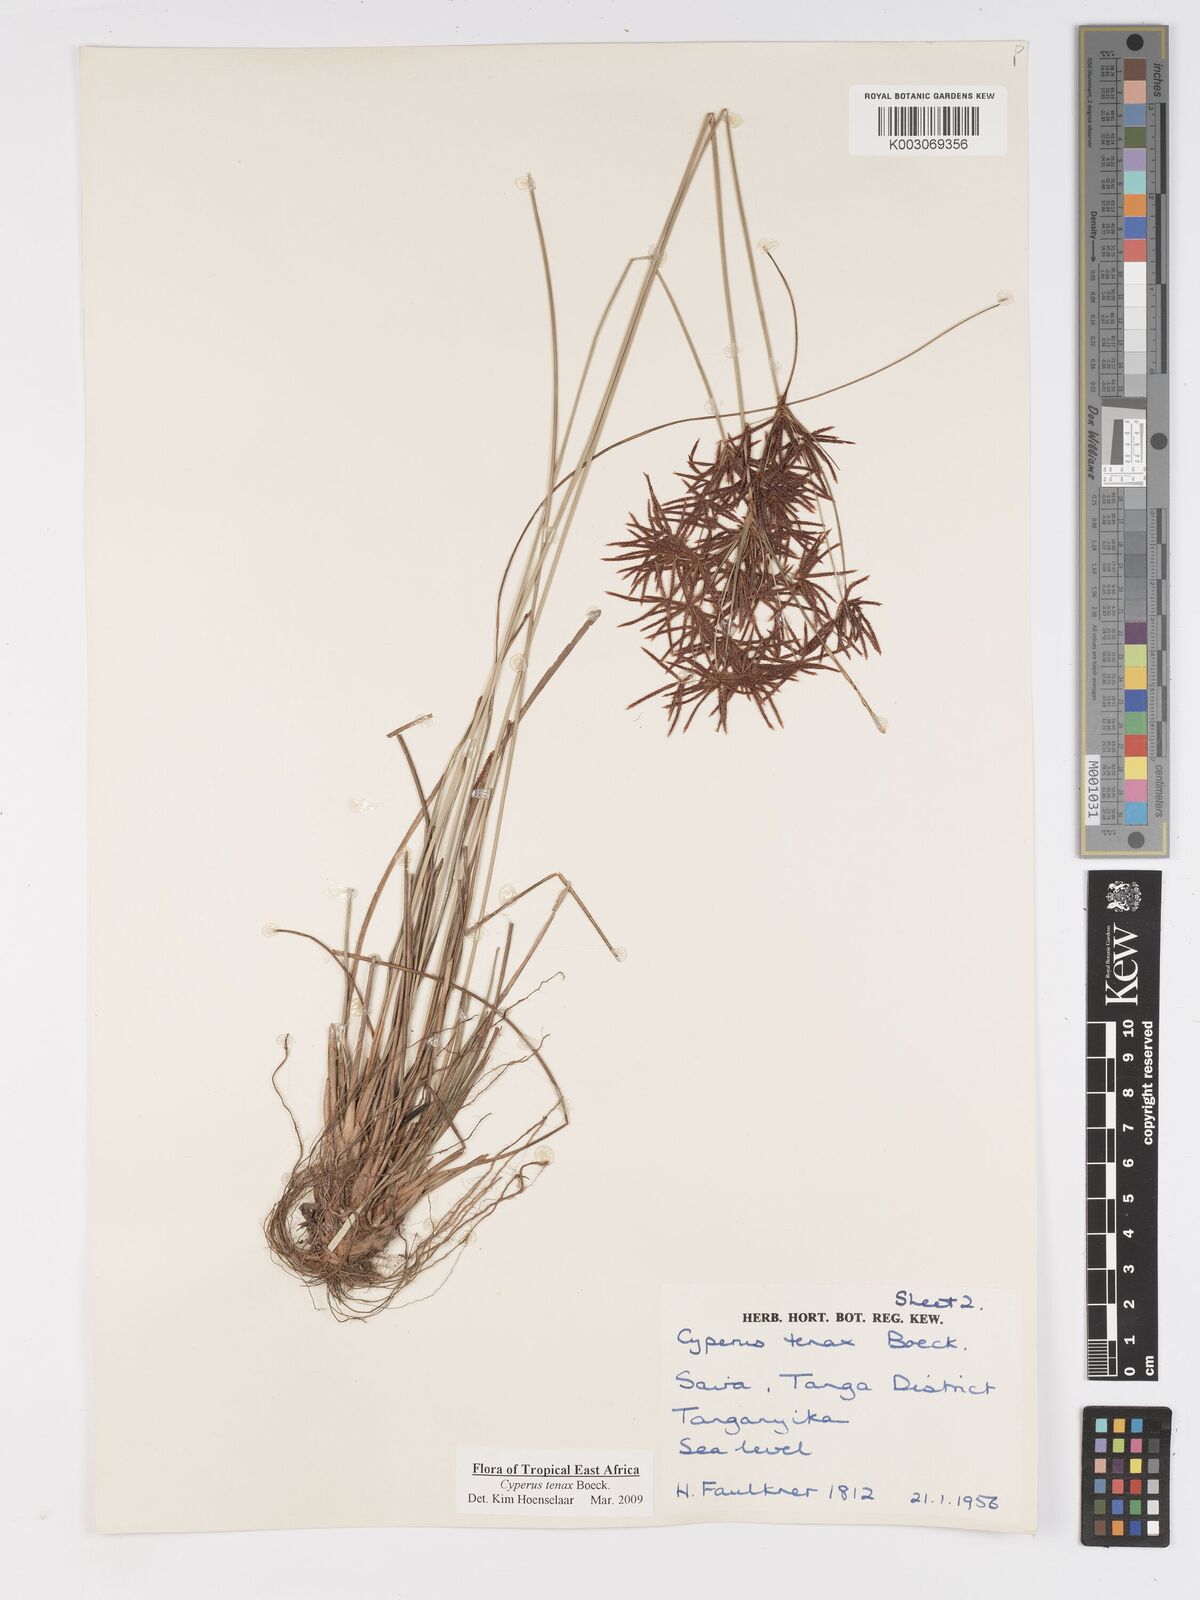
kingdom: Plantae
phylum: Tracheophyta
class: Liliopsida
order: Poales
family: Cyperaceae
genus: Cyperus
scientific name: Cyperus tenax
